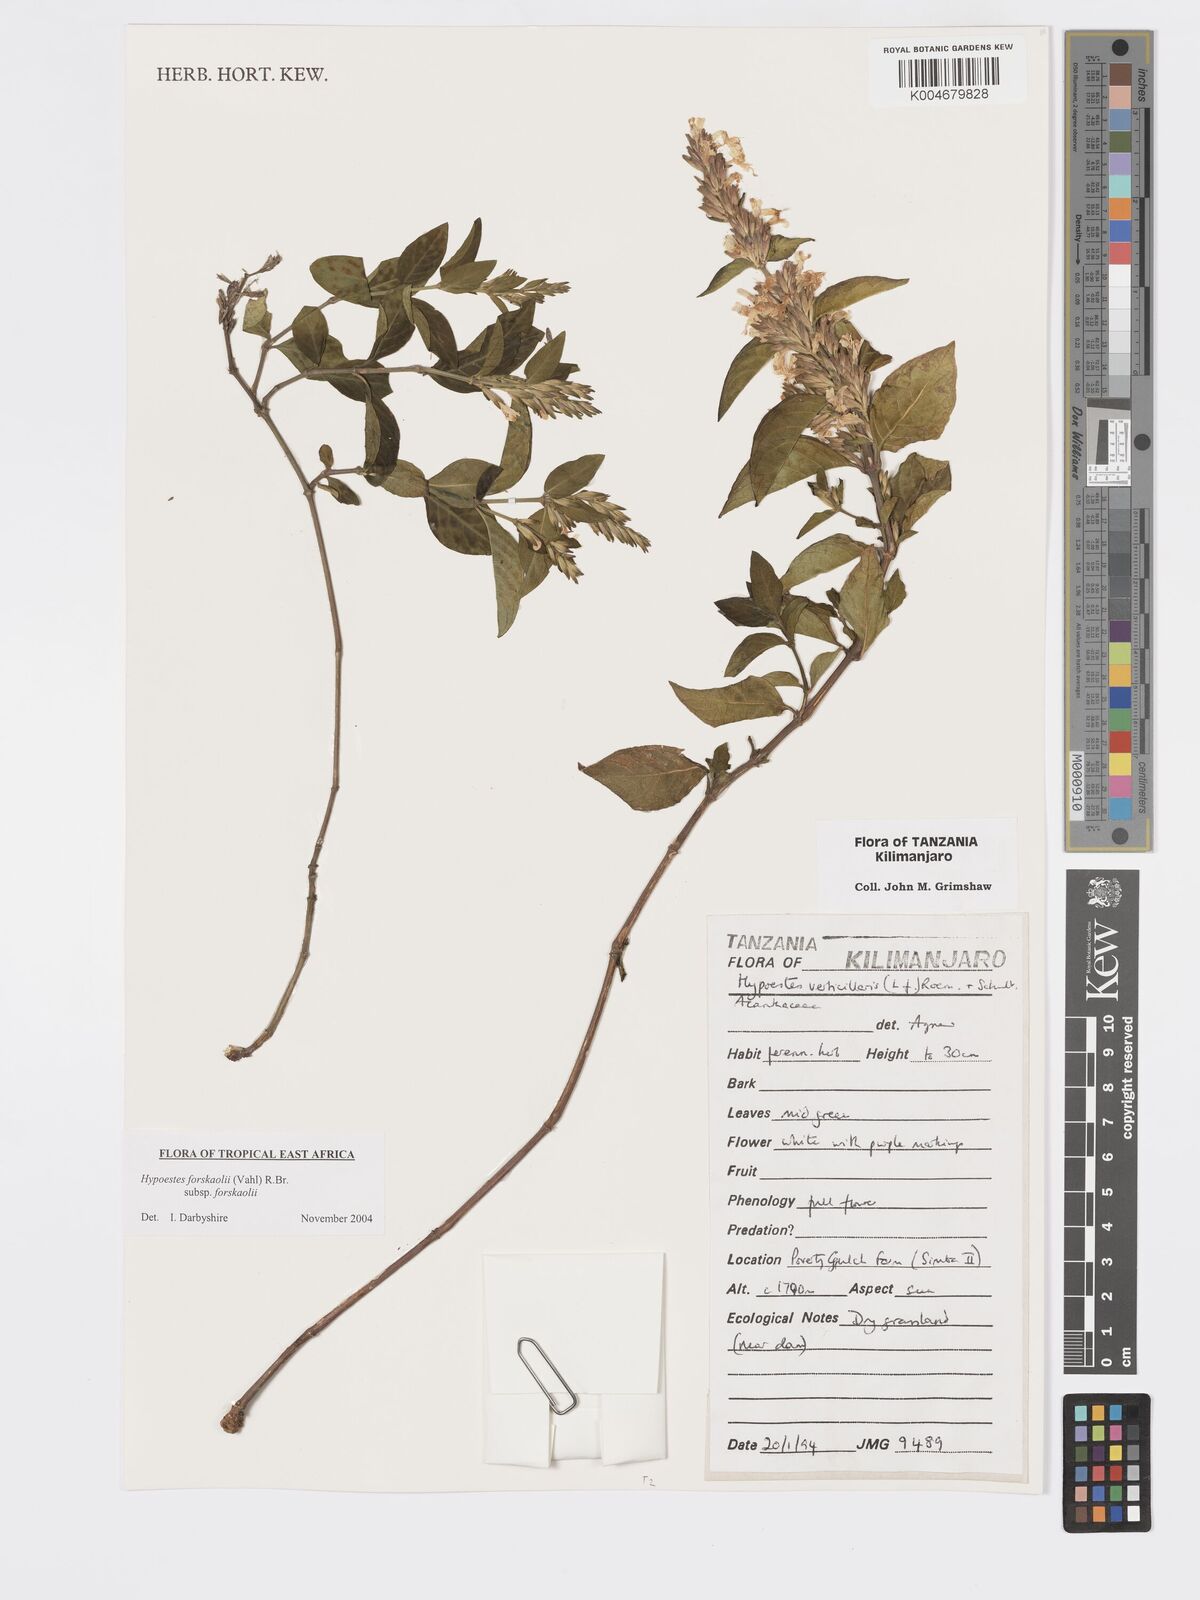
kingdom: Plantae
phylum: Tracheophyta
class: Magnoliopsida
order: Lamiales
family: Acanthaceae
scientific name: Acanthaceae
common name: Acanthaceae
